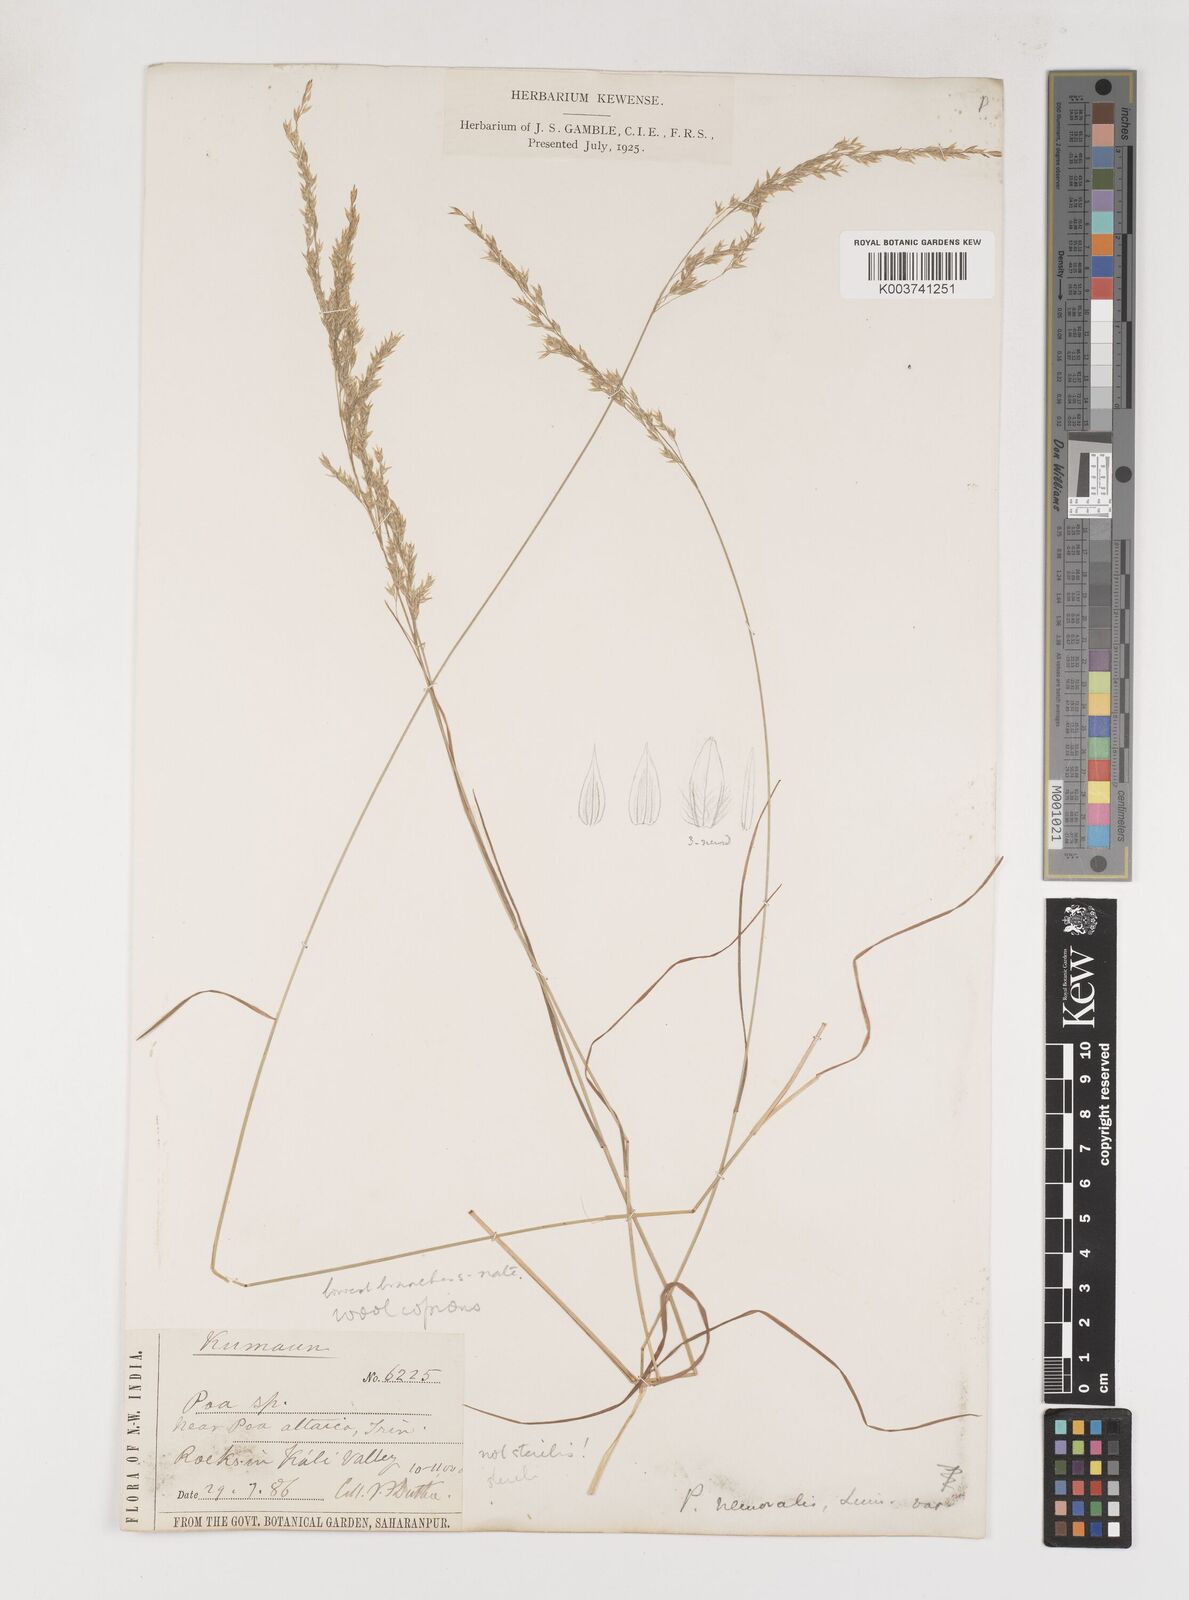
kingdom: Plantae
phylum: Tracheophyta
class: Liliopsida
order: Poales
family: Poaceae
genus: Poa
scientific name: Poa
